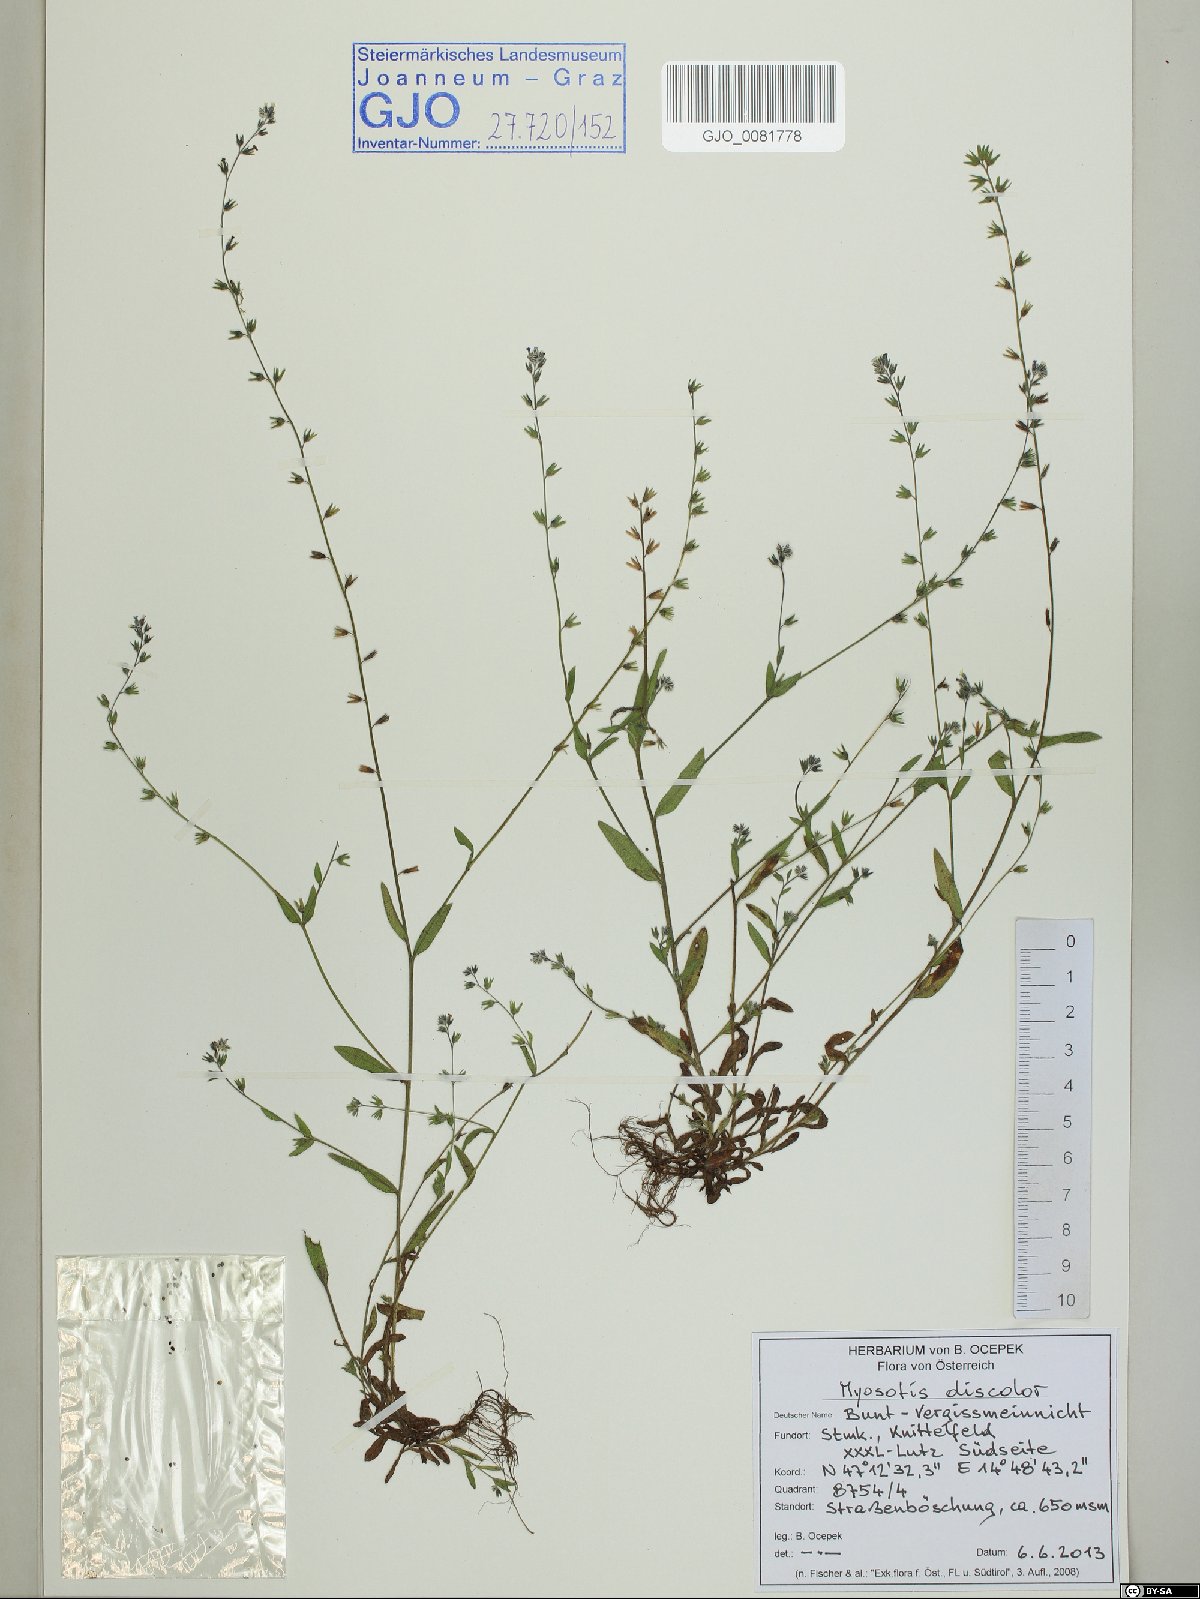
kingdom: Plantae
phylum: Tracheophyta
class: Magnoliopsida
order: Boraginales
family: Boraginaceae
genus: Myosotis
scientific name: Myosotis discolor
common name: Changing forget-me-not
